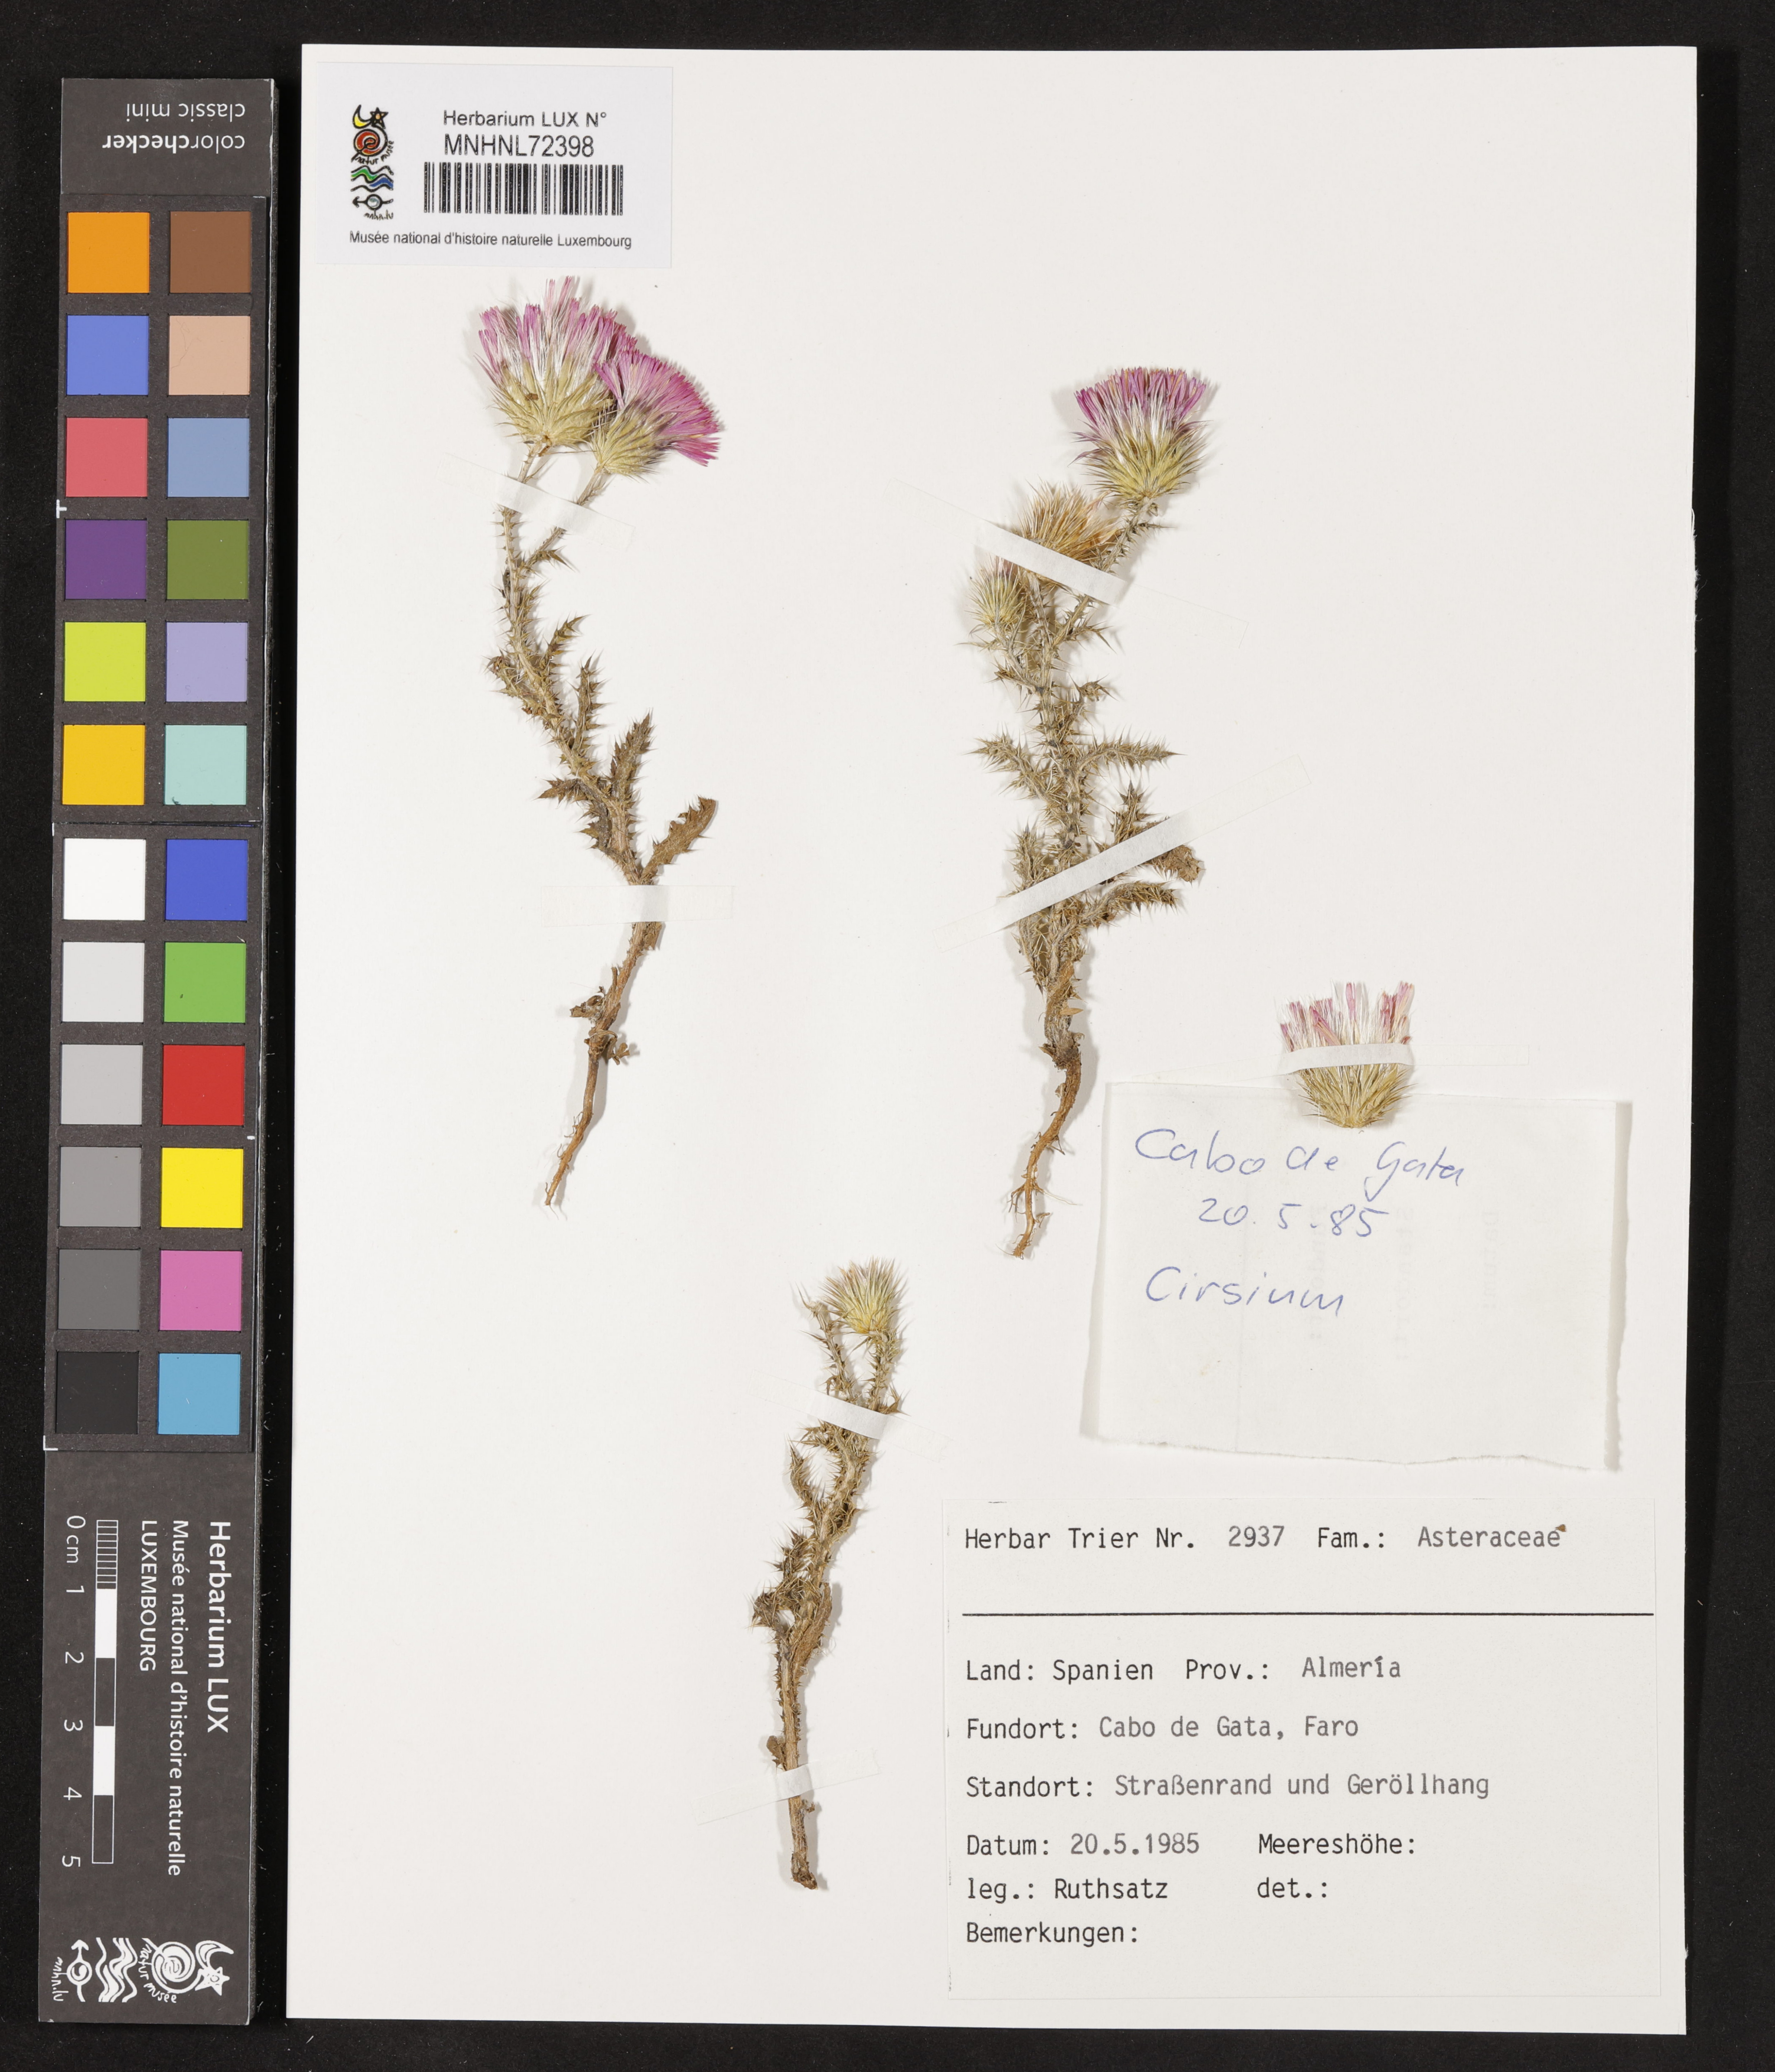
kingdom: Plantae
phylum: Tracheophyta
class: Magnoliopsida
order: Asterales
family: Asteraceae
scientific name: Asteraceae
